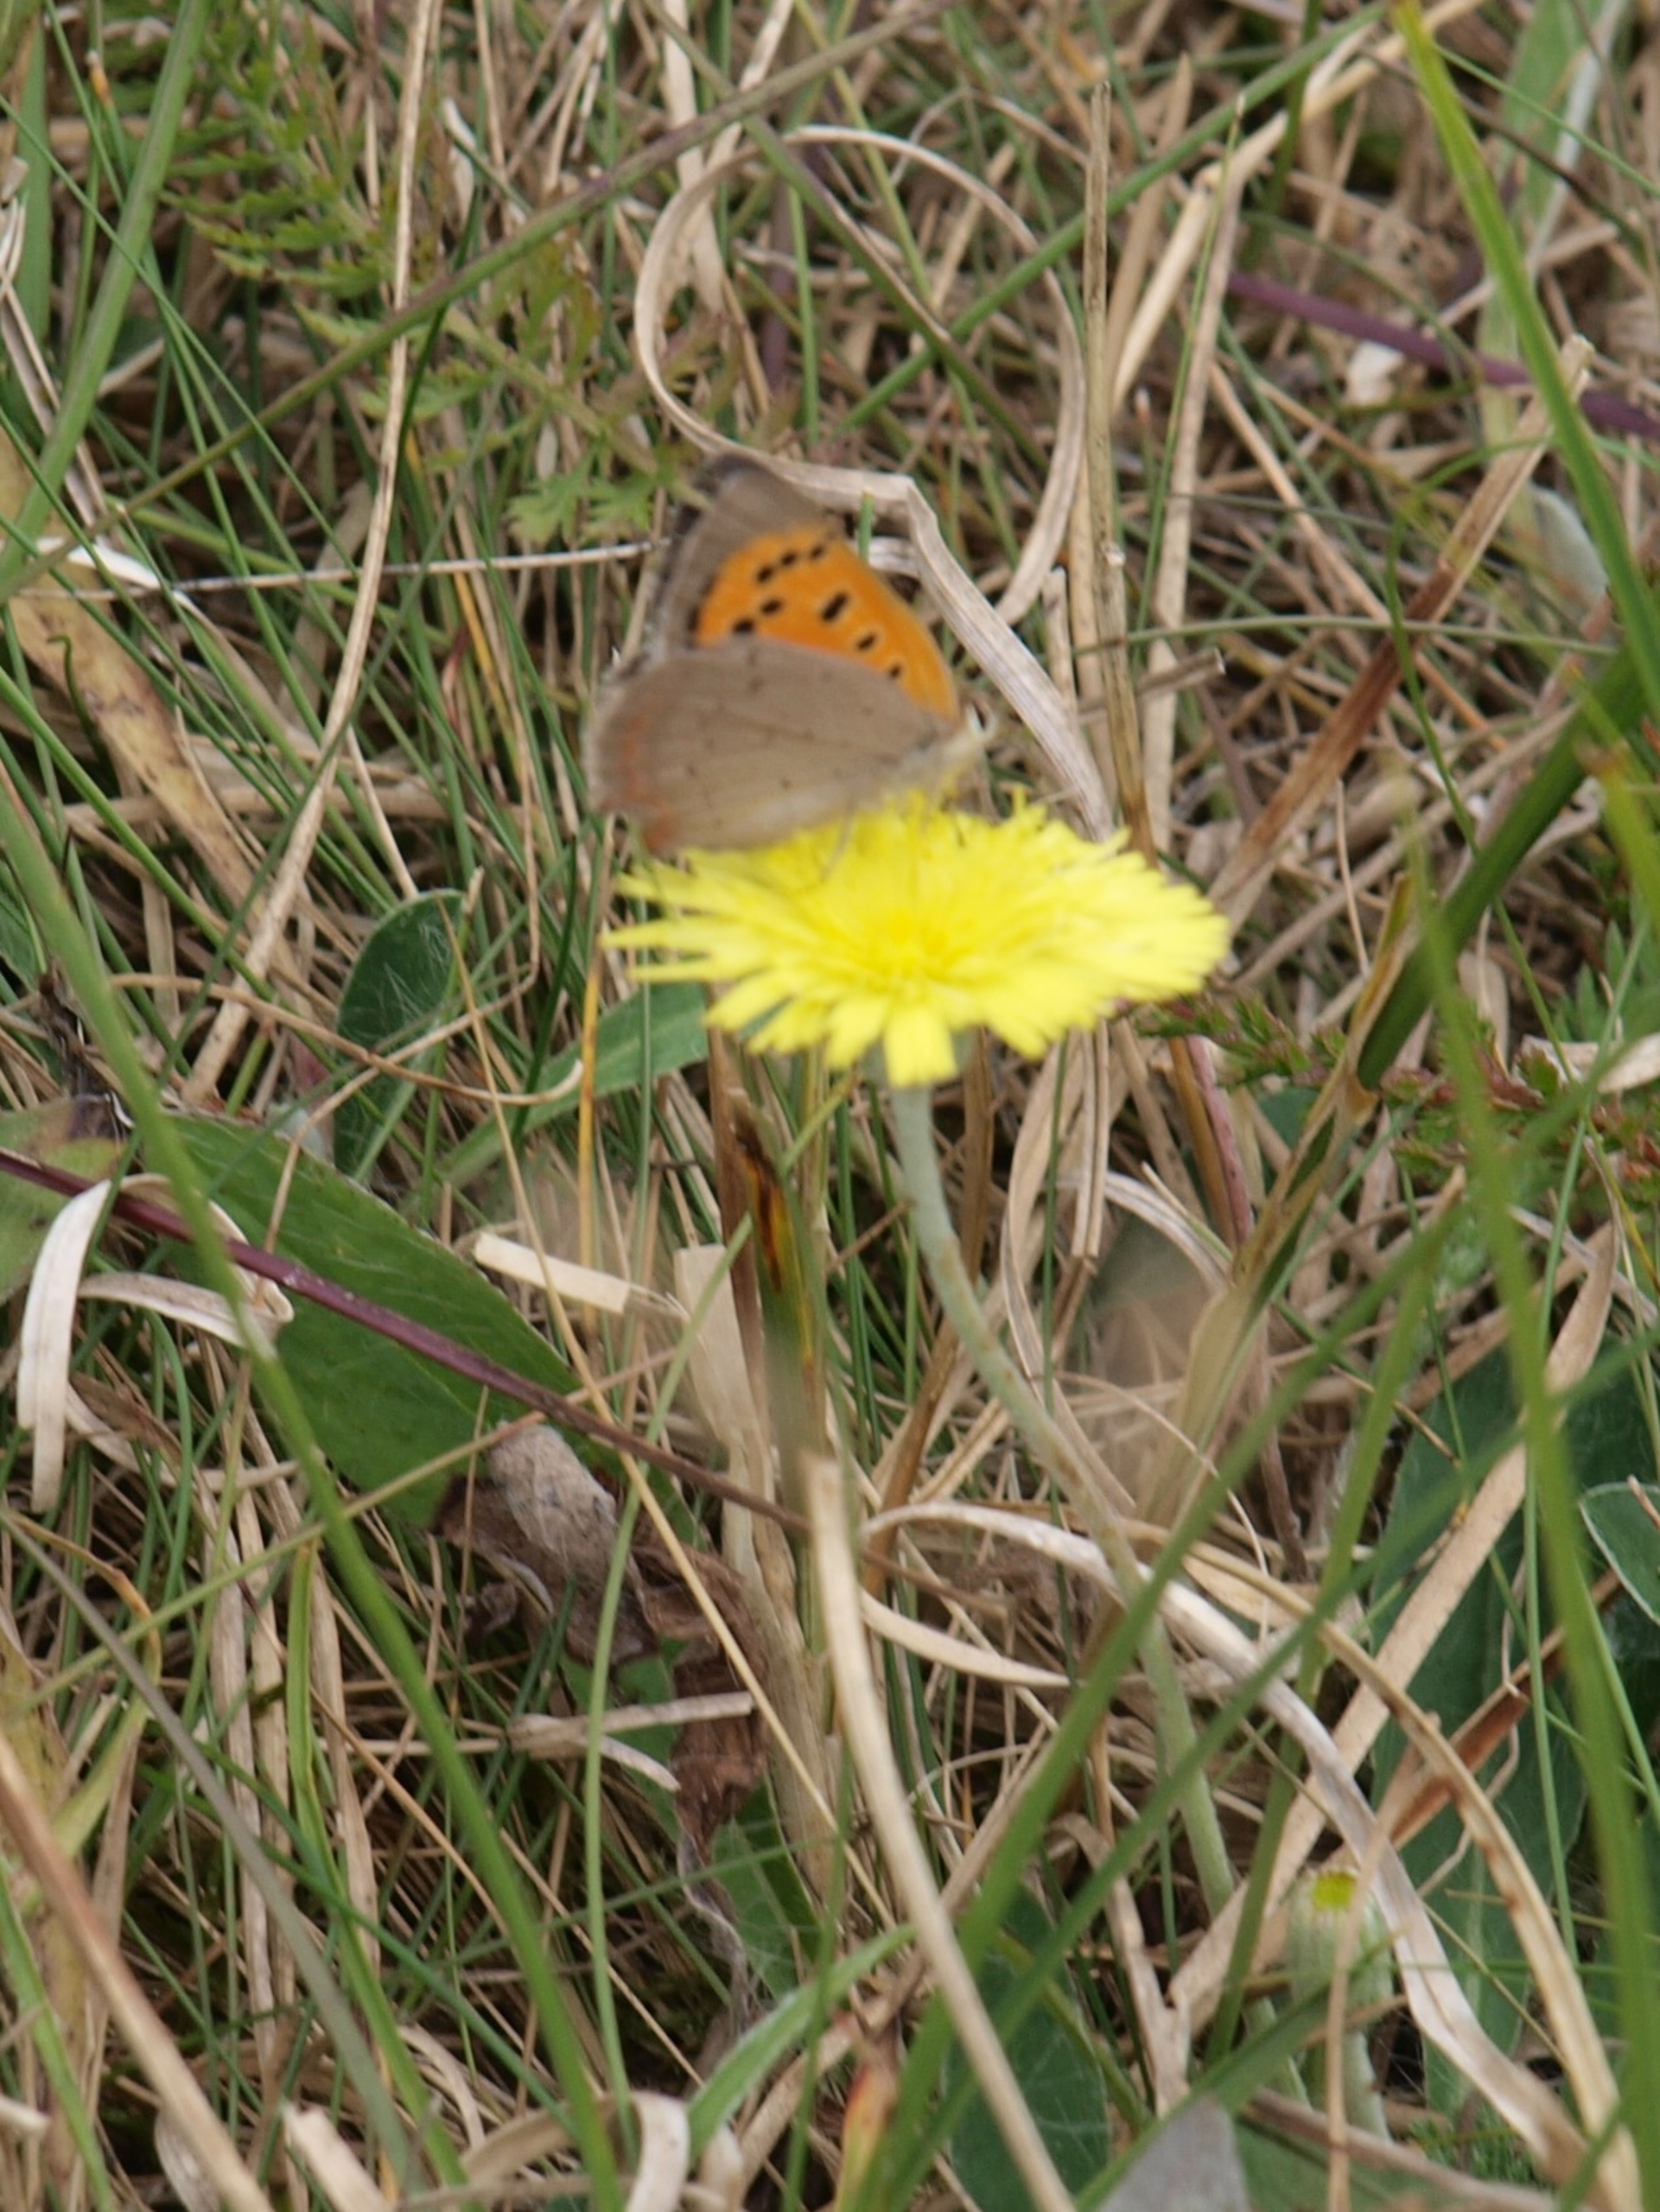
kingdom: Animalia
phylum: Arthropoda
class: Insecta
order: Lepidoptera
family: Lycaenidae
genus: Lycaena
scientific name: Lycaena phlaeas
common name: Lille ildfugl
